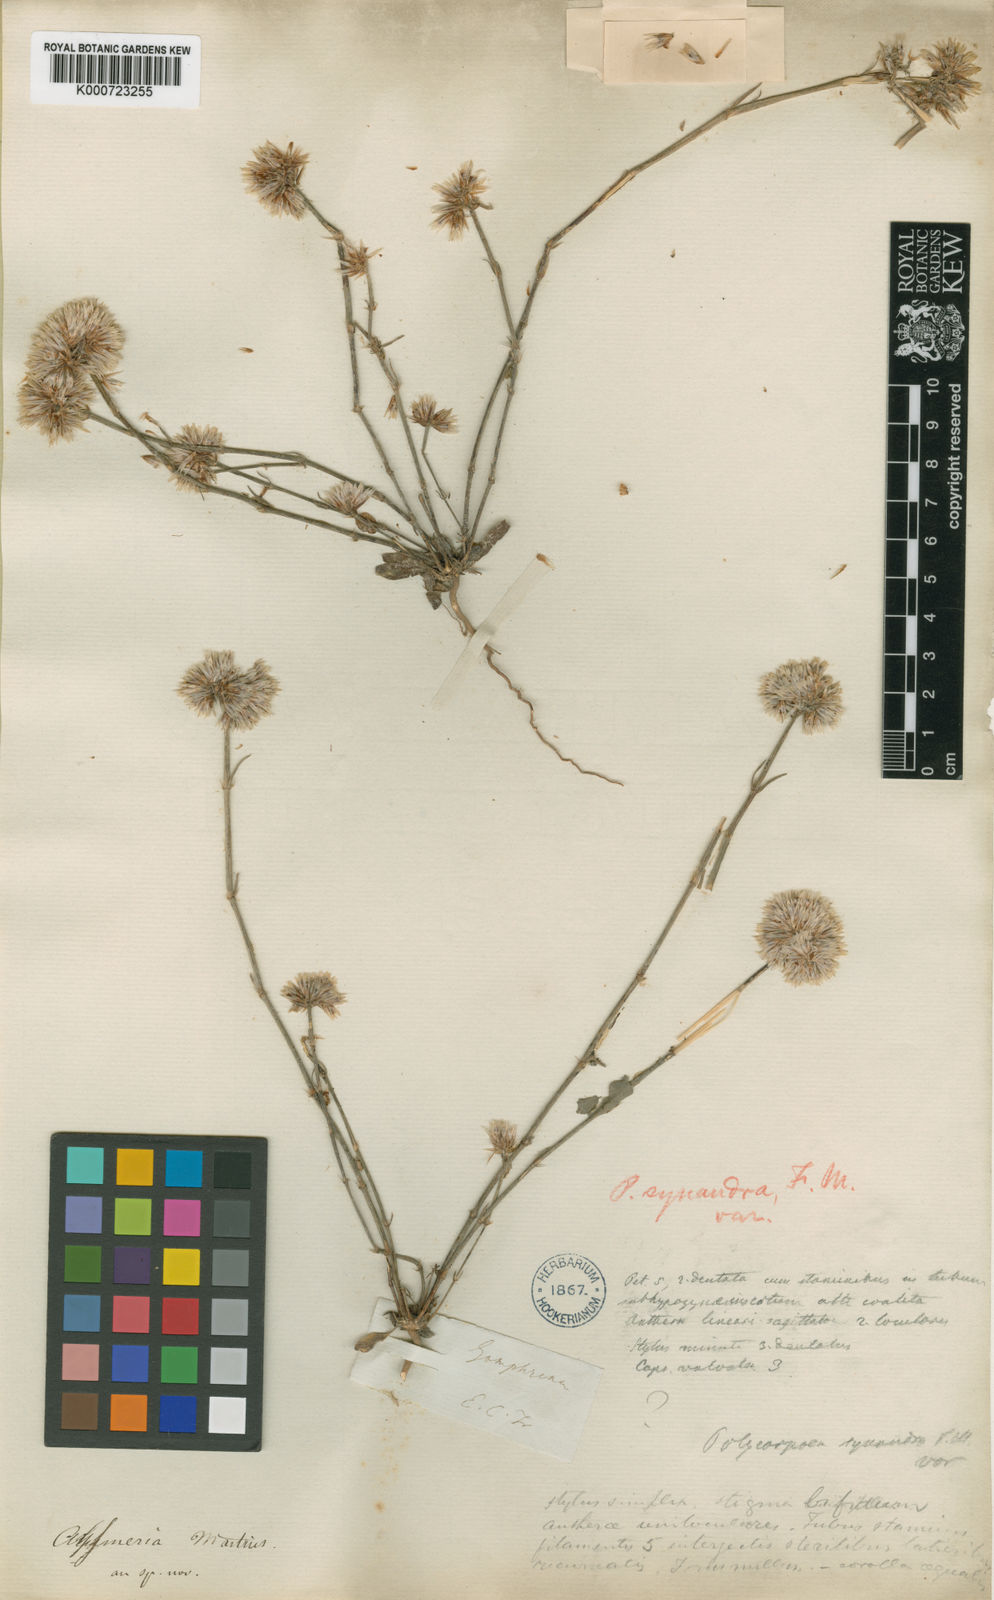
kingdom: Plantae
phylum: Tracheophyta
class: Magnoliopsida
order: Caryophyllales
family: Caryophyllaceae
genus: Polycarpaea
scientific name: Polycarpaea spirostylis
